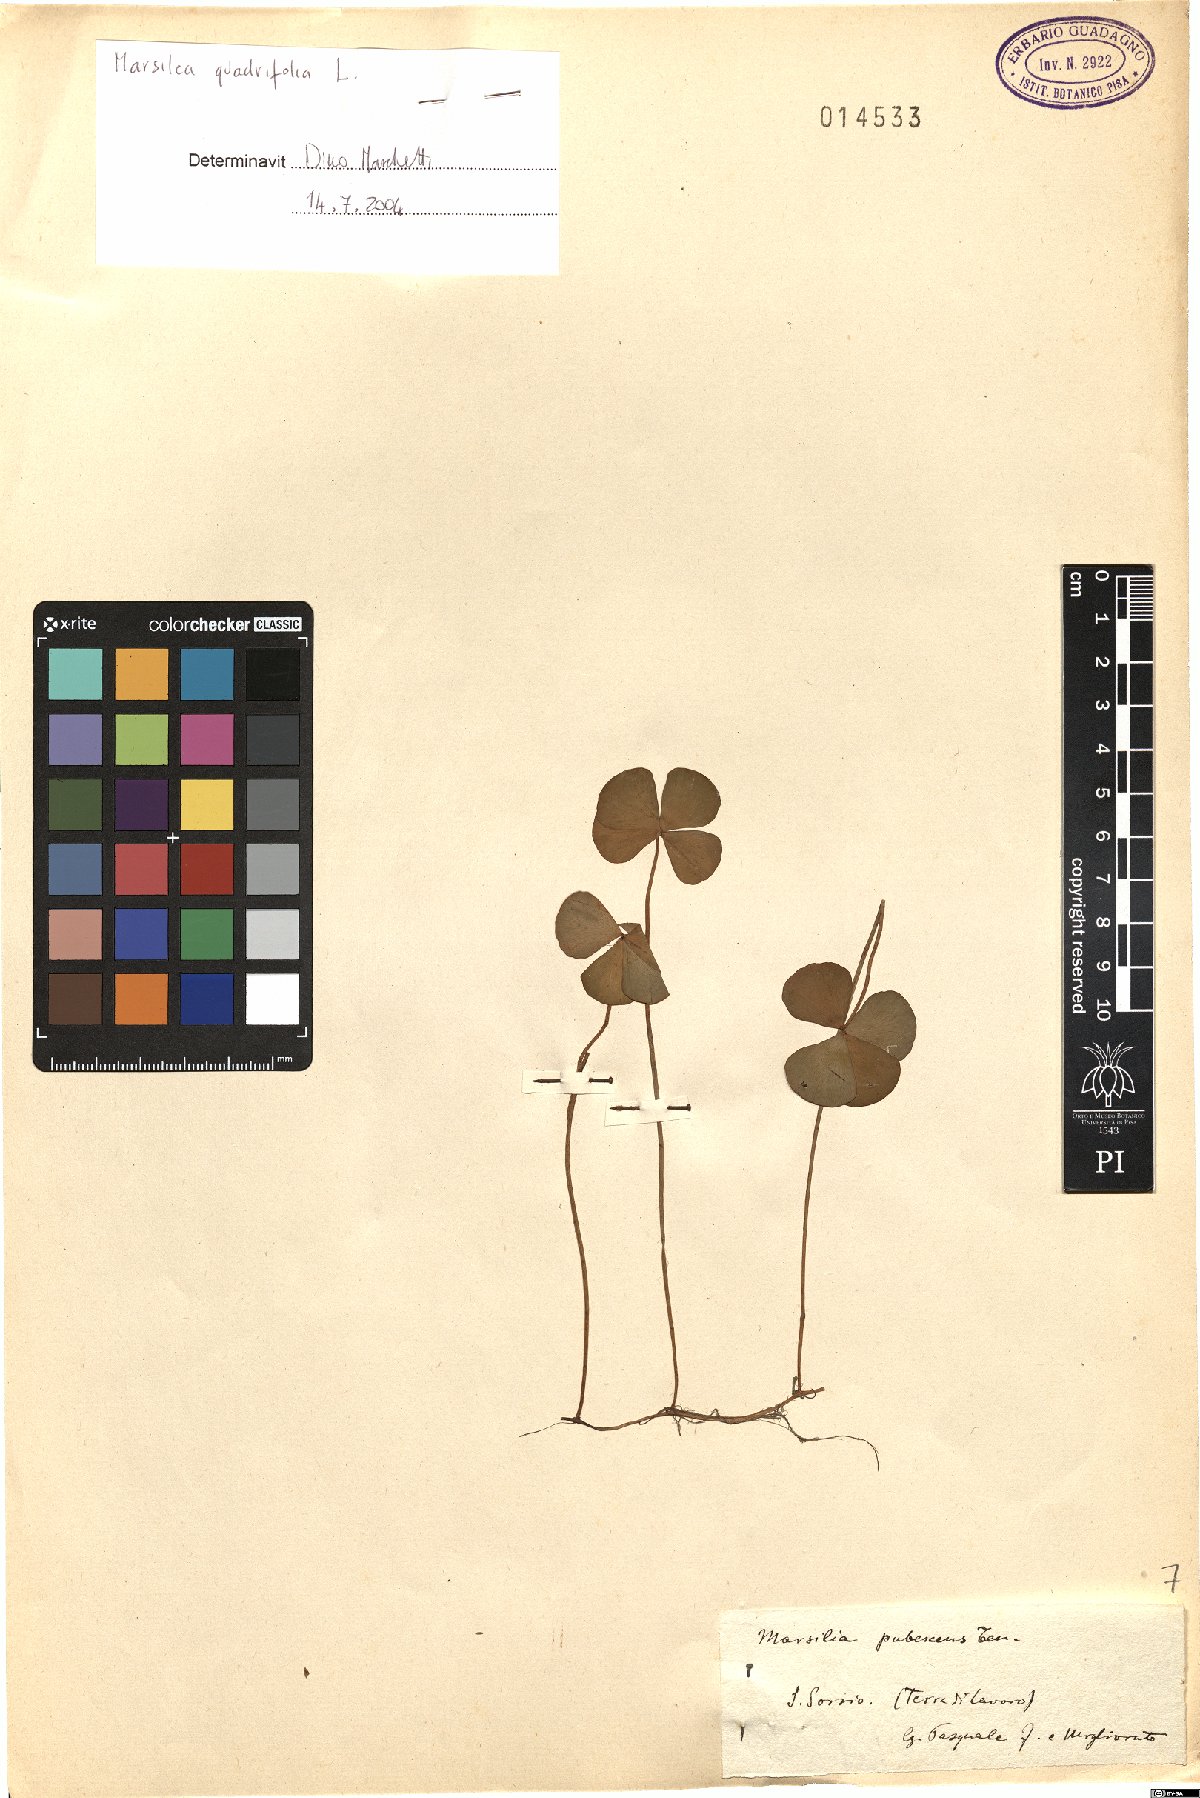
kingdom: Plantae
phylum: Tracheophyta
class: Polypodiopsida
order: Salviniales
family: Marsileaceae
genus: Marsilea
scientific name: Marsilea quadrifolia
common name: Water shamrock
